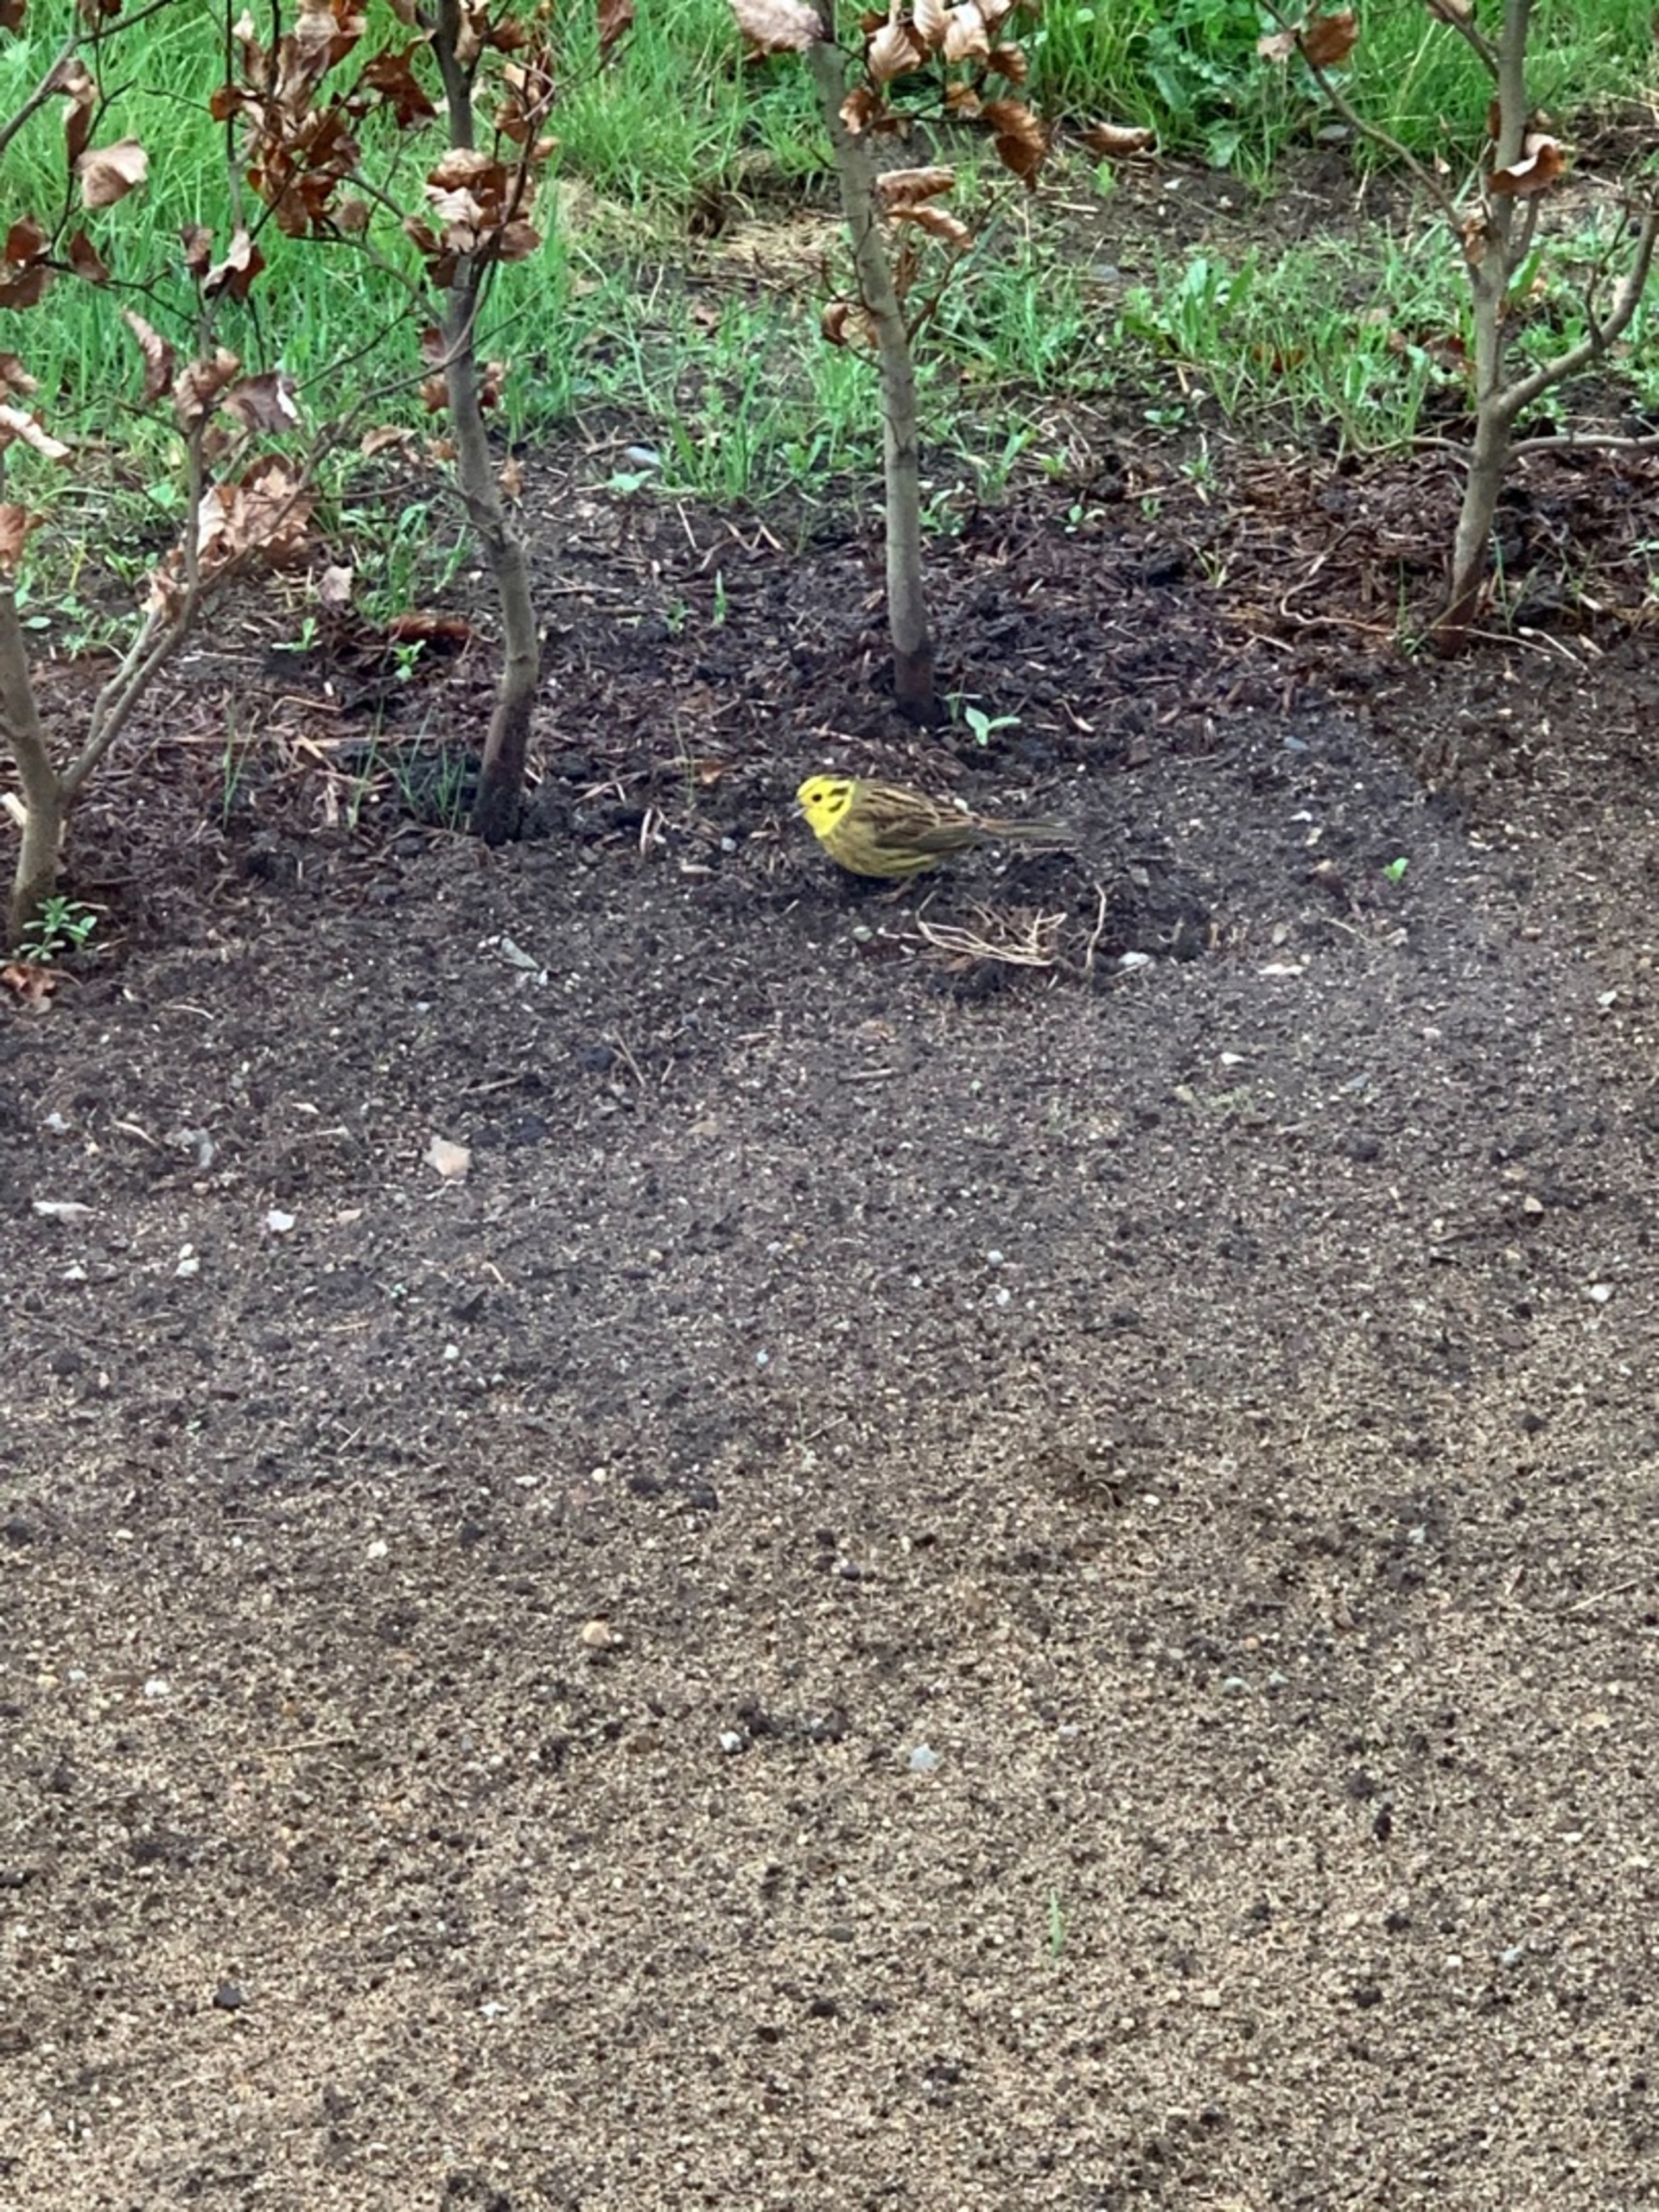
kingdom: Animalia
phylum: Chordata
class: Aves
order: Passeriformes
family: Emberizidae
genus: Emberiza
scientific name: Emberiza citrinella
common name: Gulspurv
